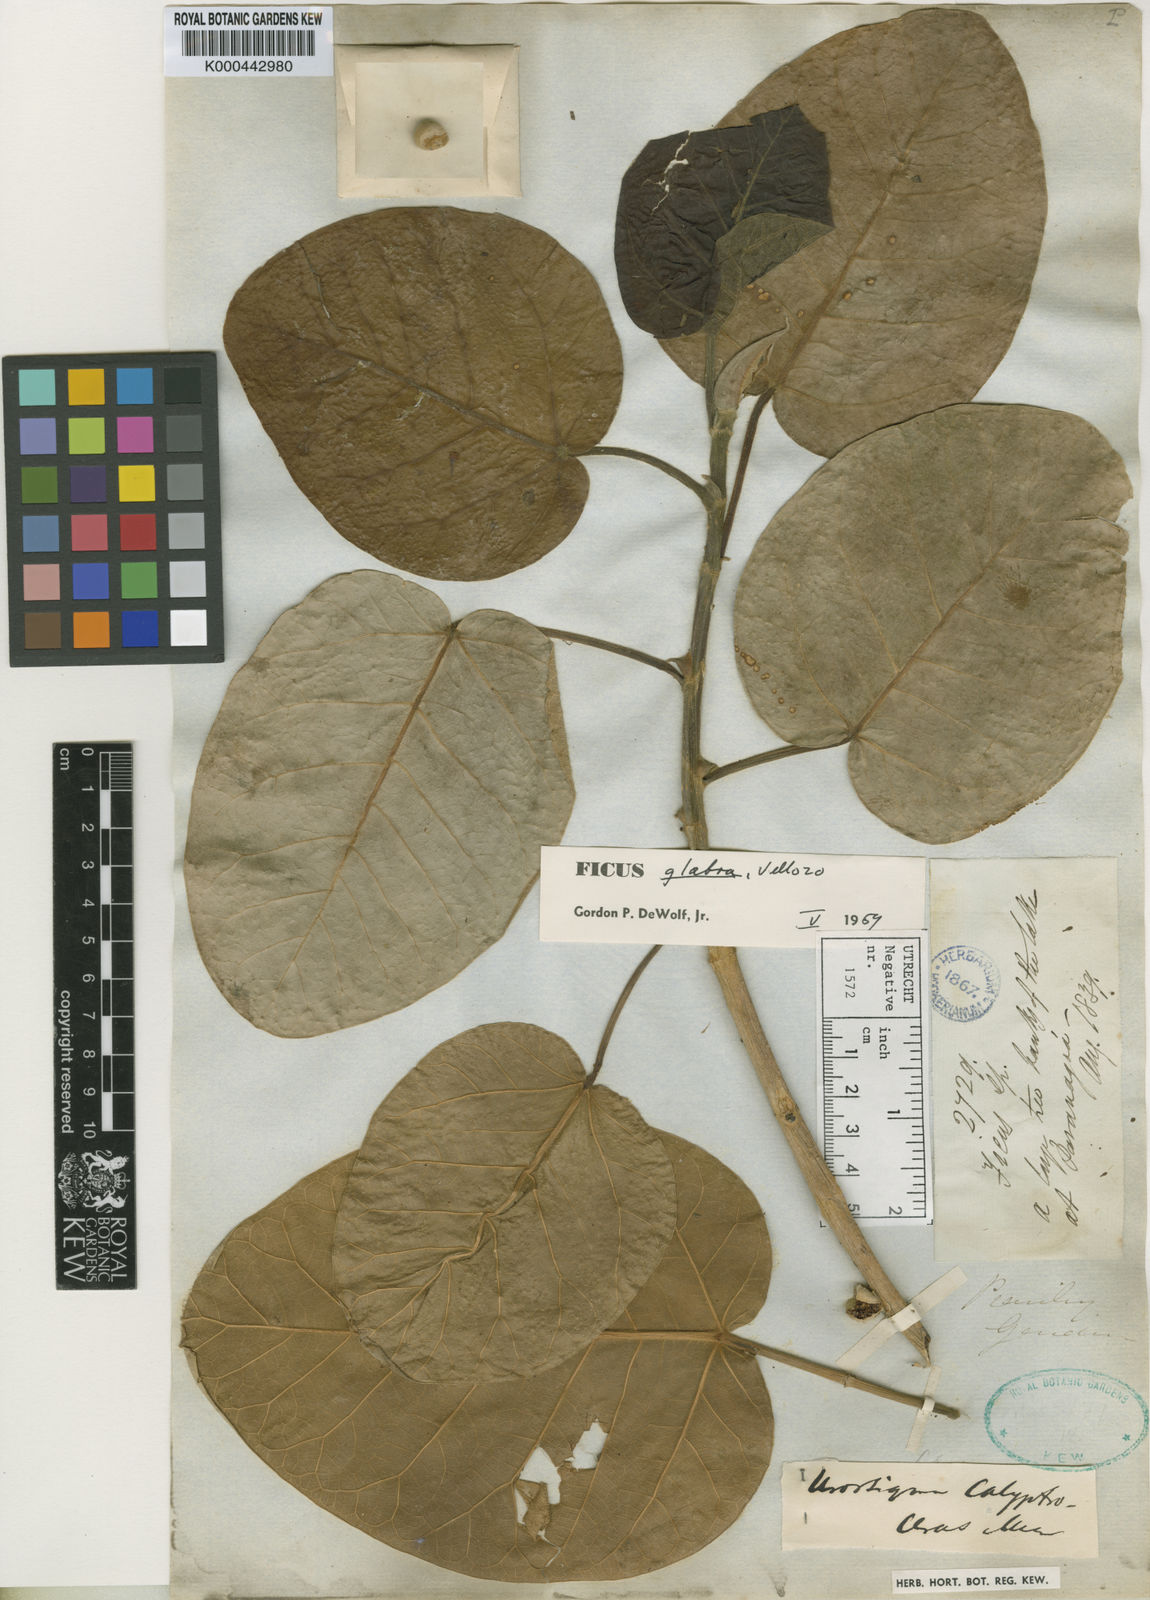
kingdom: Plantae
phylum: Tracheophyta
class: Magnoliopsida
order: Rosales
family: Moraceae
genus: Ficus
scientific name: Ficus calyptroceras
